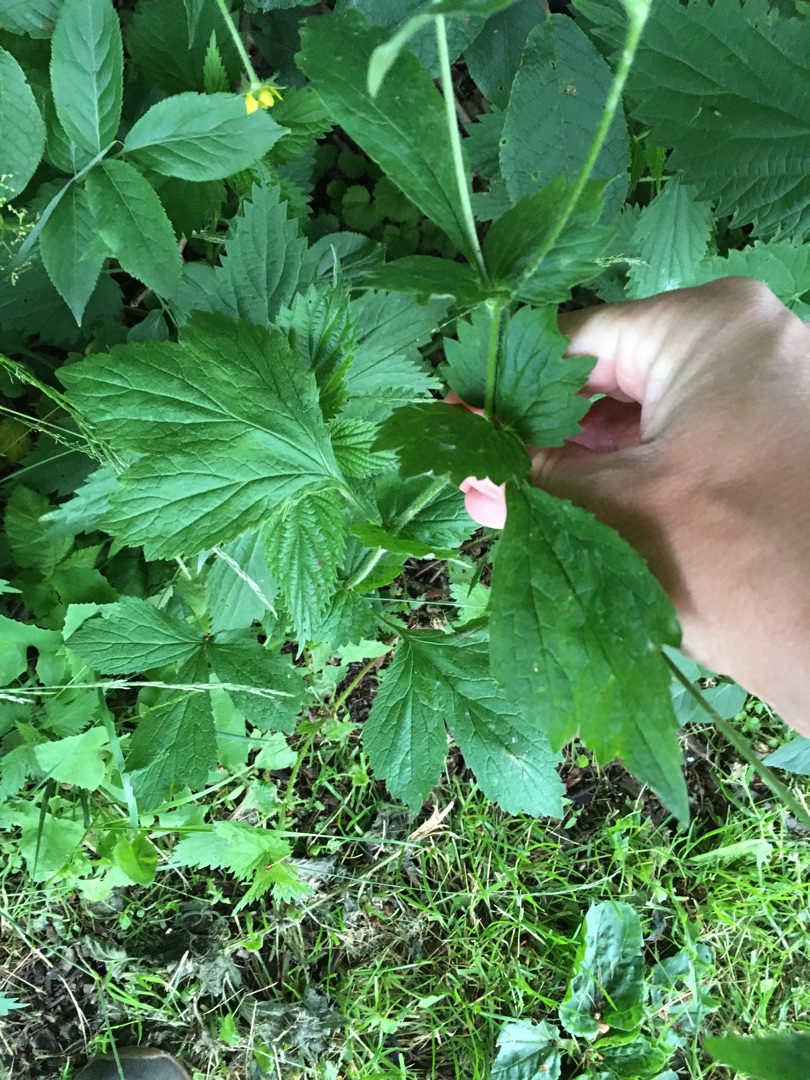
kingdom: Plantae
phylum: Tracheophyta
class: Magnoliopsida
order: Rosales
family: Rosaceae
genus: Geum
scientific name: Geum urbanum
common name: Feber-nellikerod
